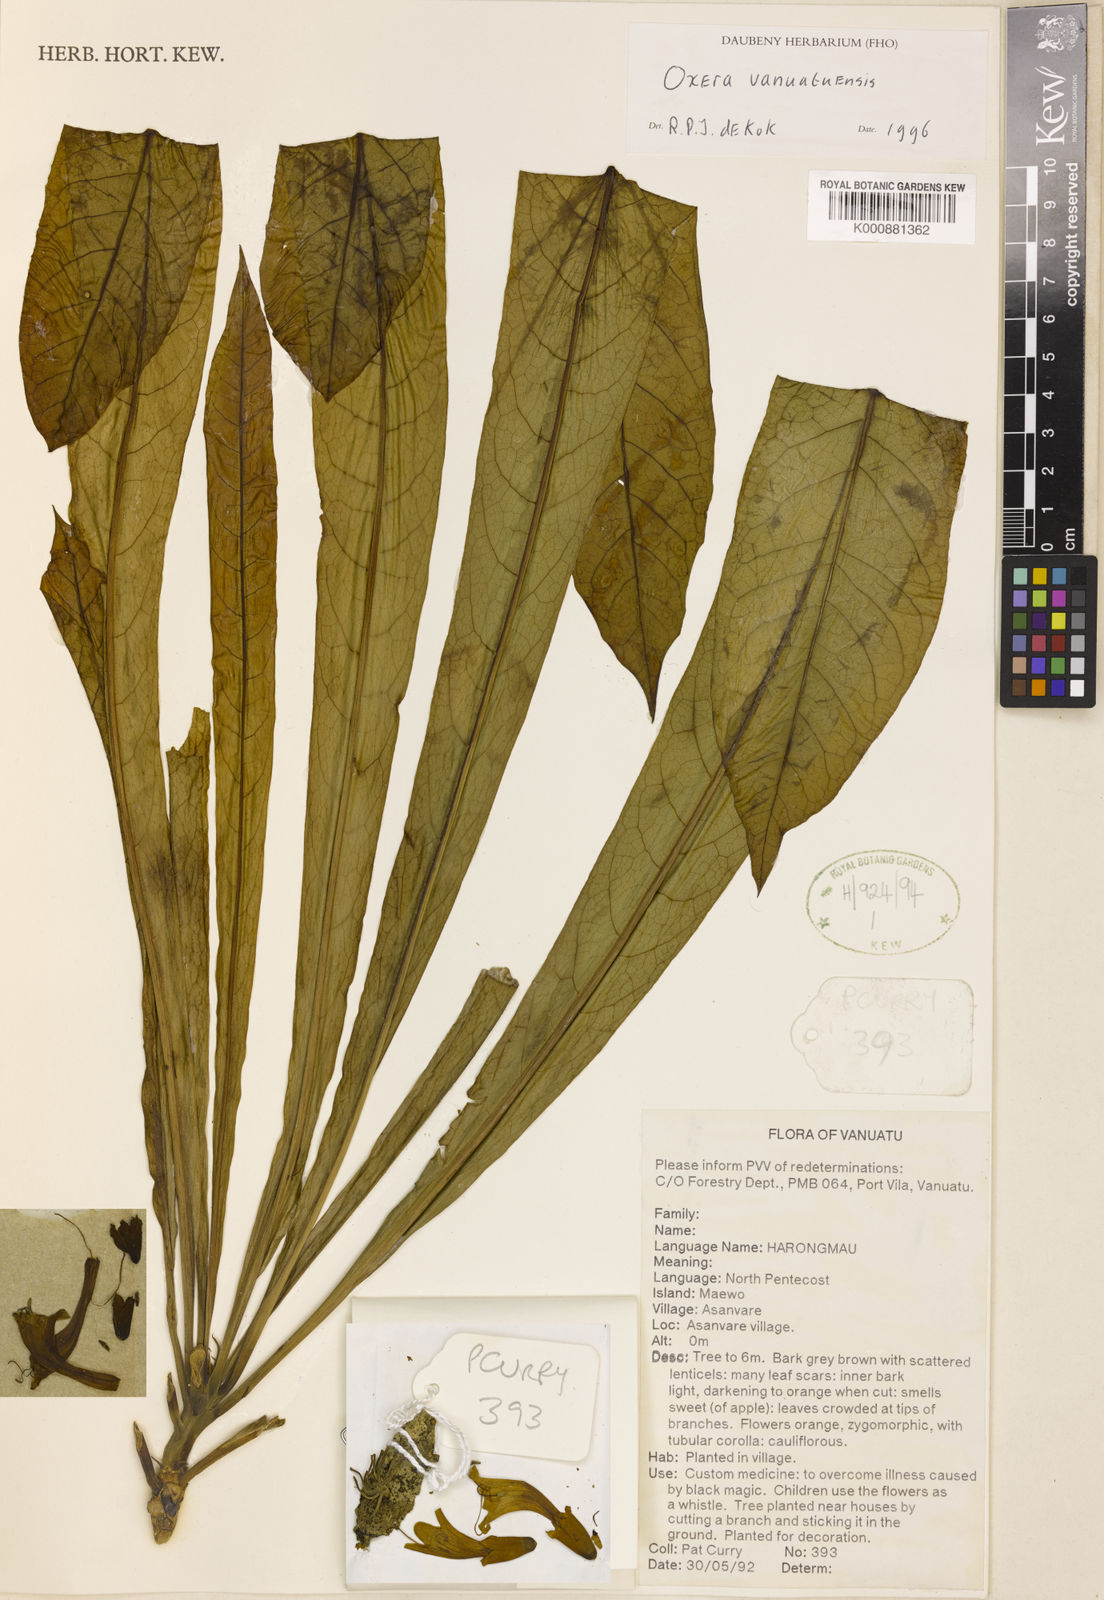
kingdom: Plantae
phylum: Tracheophyta
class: Magnoliopsida
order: Lamiales
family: Lamiaceae
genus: Oxera
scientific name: Oxera vanuatuensis
